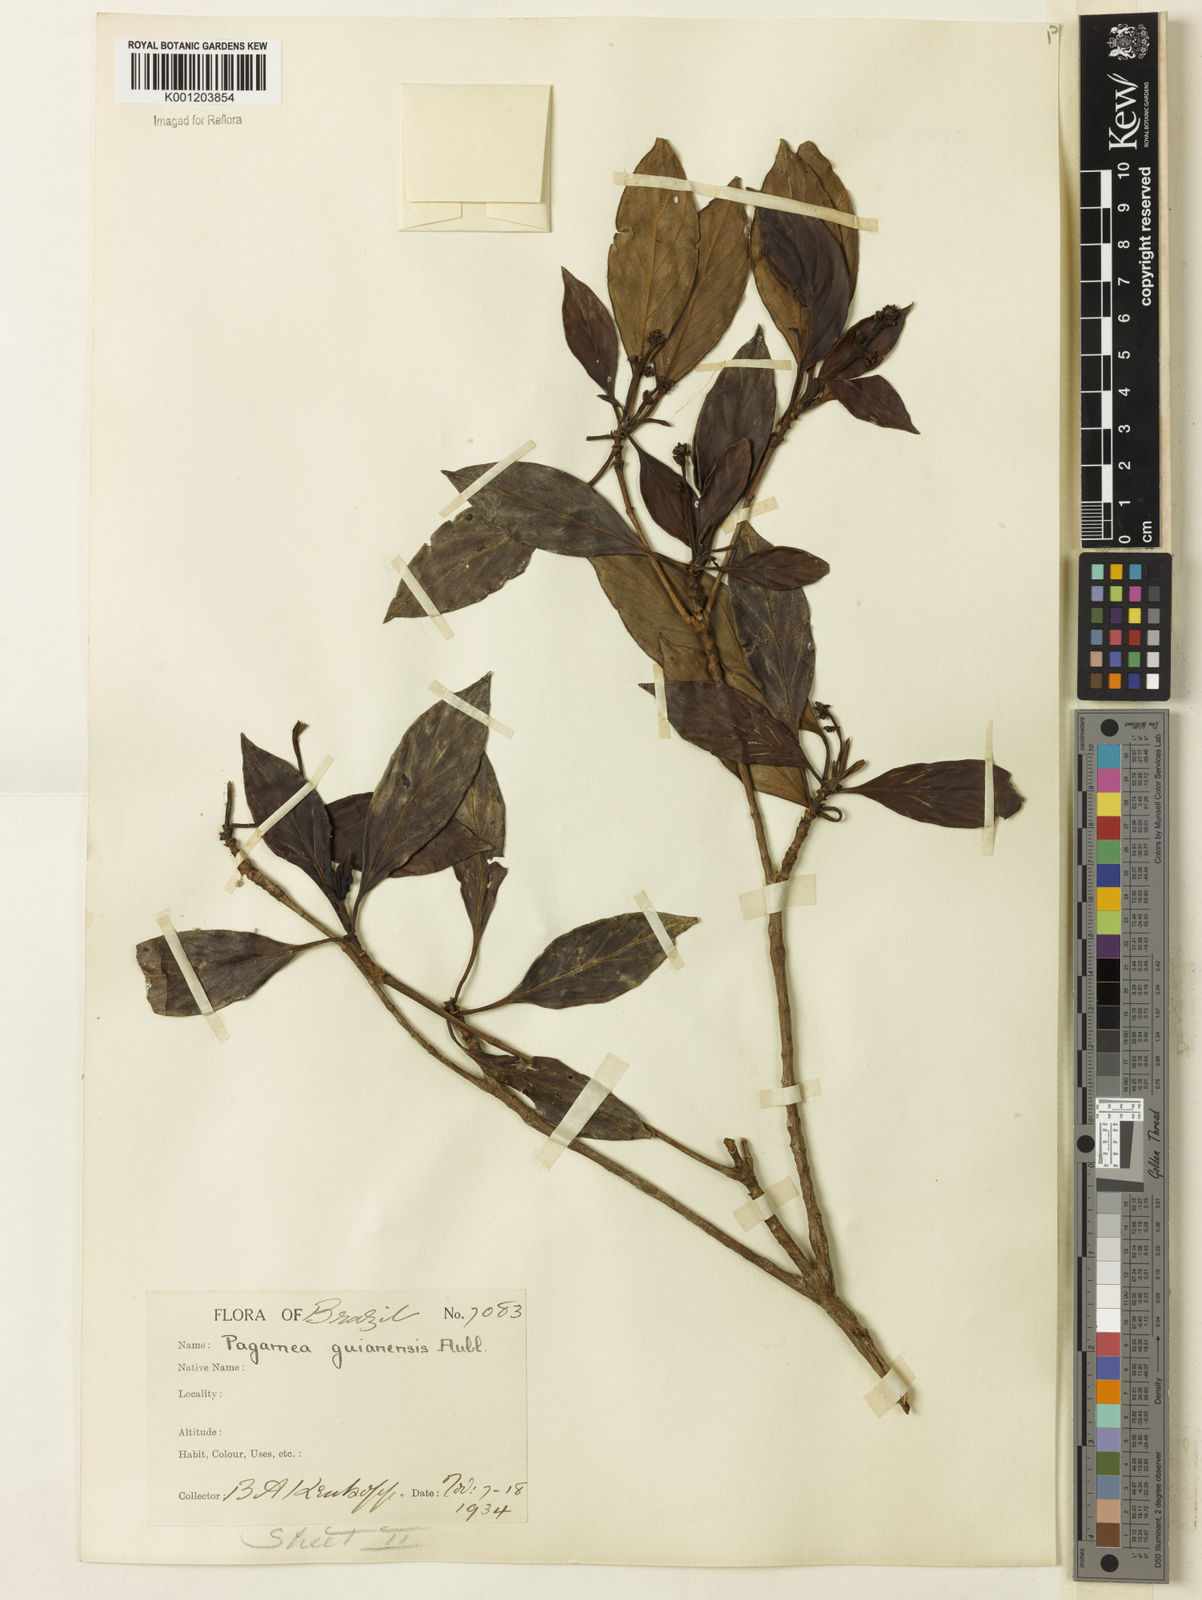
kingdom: Plantae
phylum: Tracheophyta
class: Magnoliopsida
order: Gentianales
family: Rubiaceae
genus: Pagamea
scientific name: Pagamea guianensis
